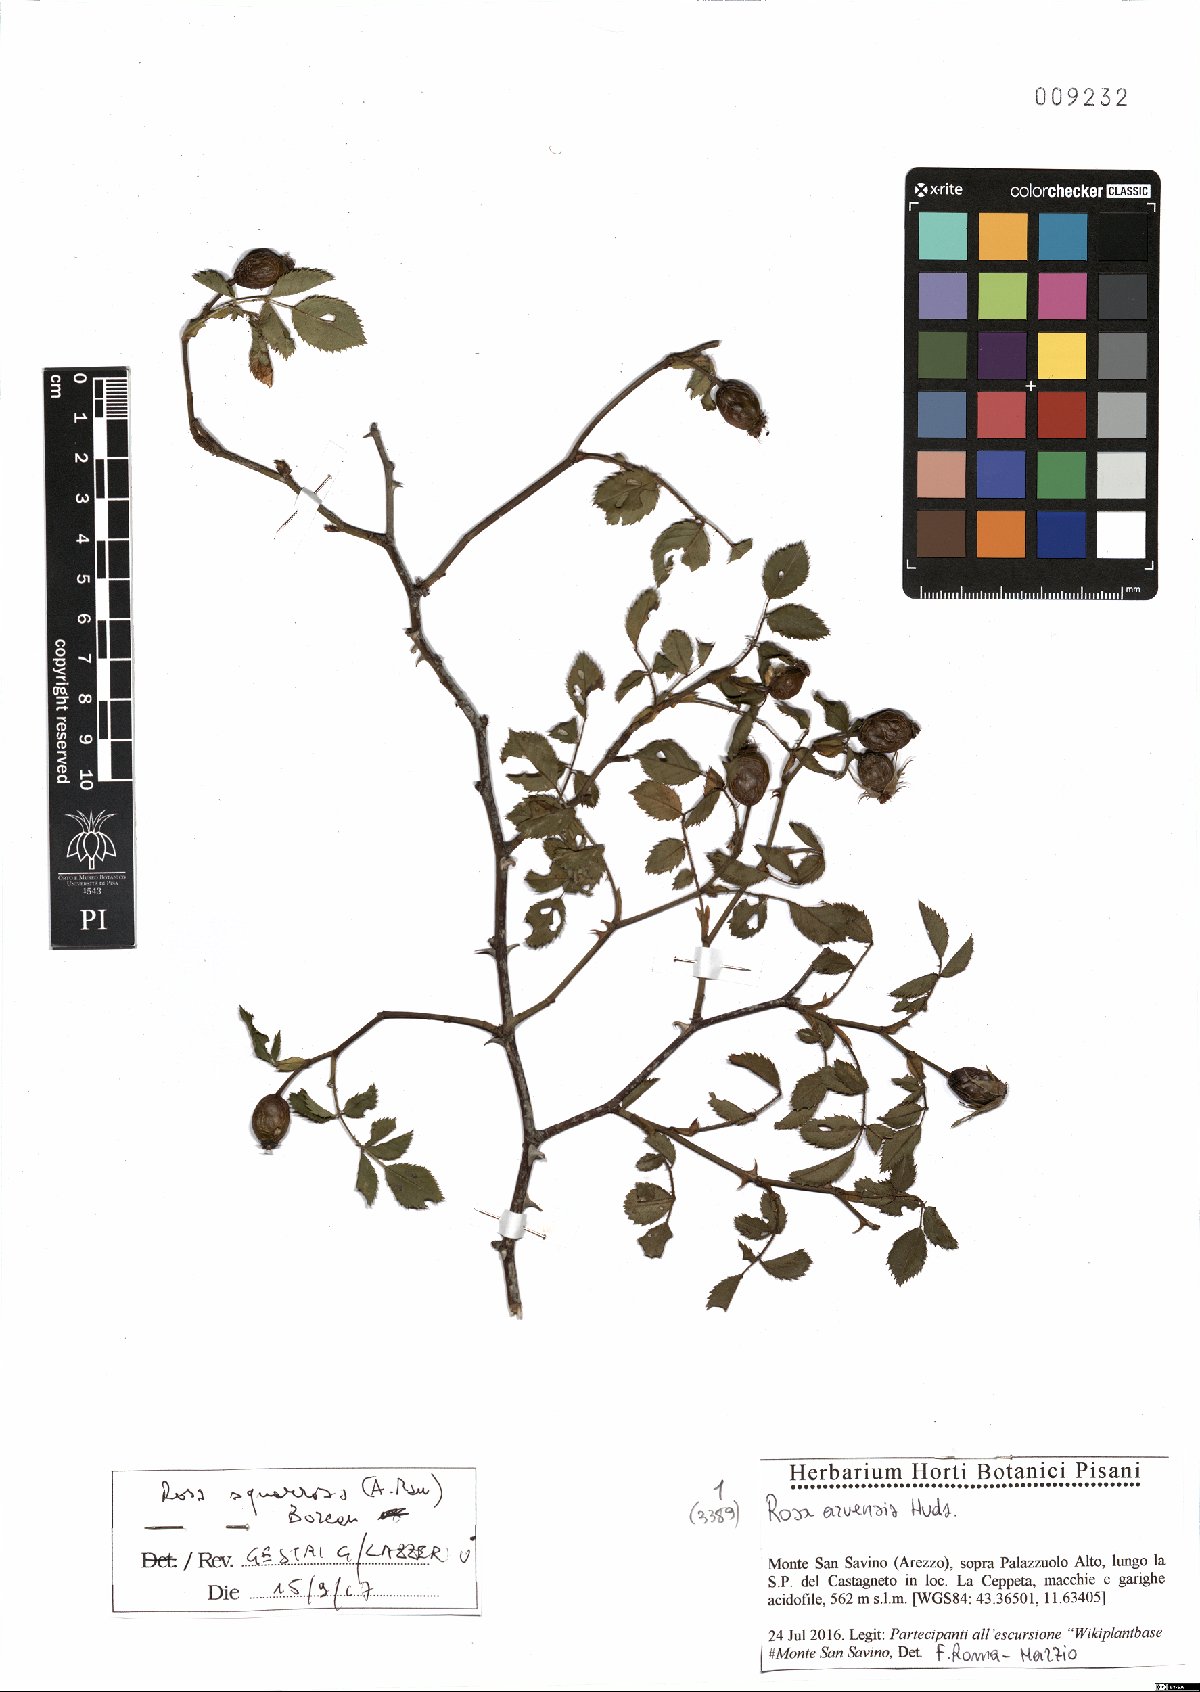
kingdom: Plantae
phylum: Tracheophyta
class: Magnoliopsida
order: Rosales
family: Rosaceae
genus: Rosa
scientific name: Rosa canina
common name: Dog rose
